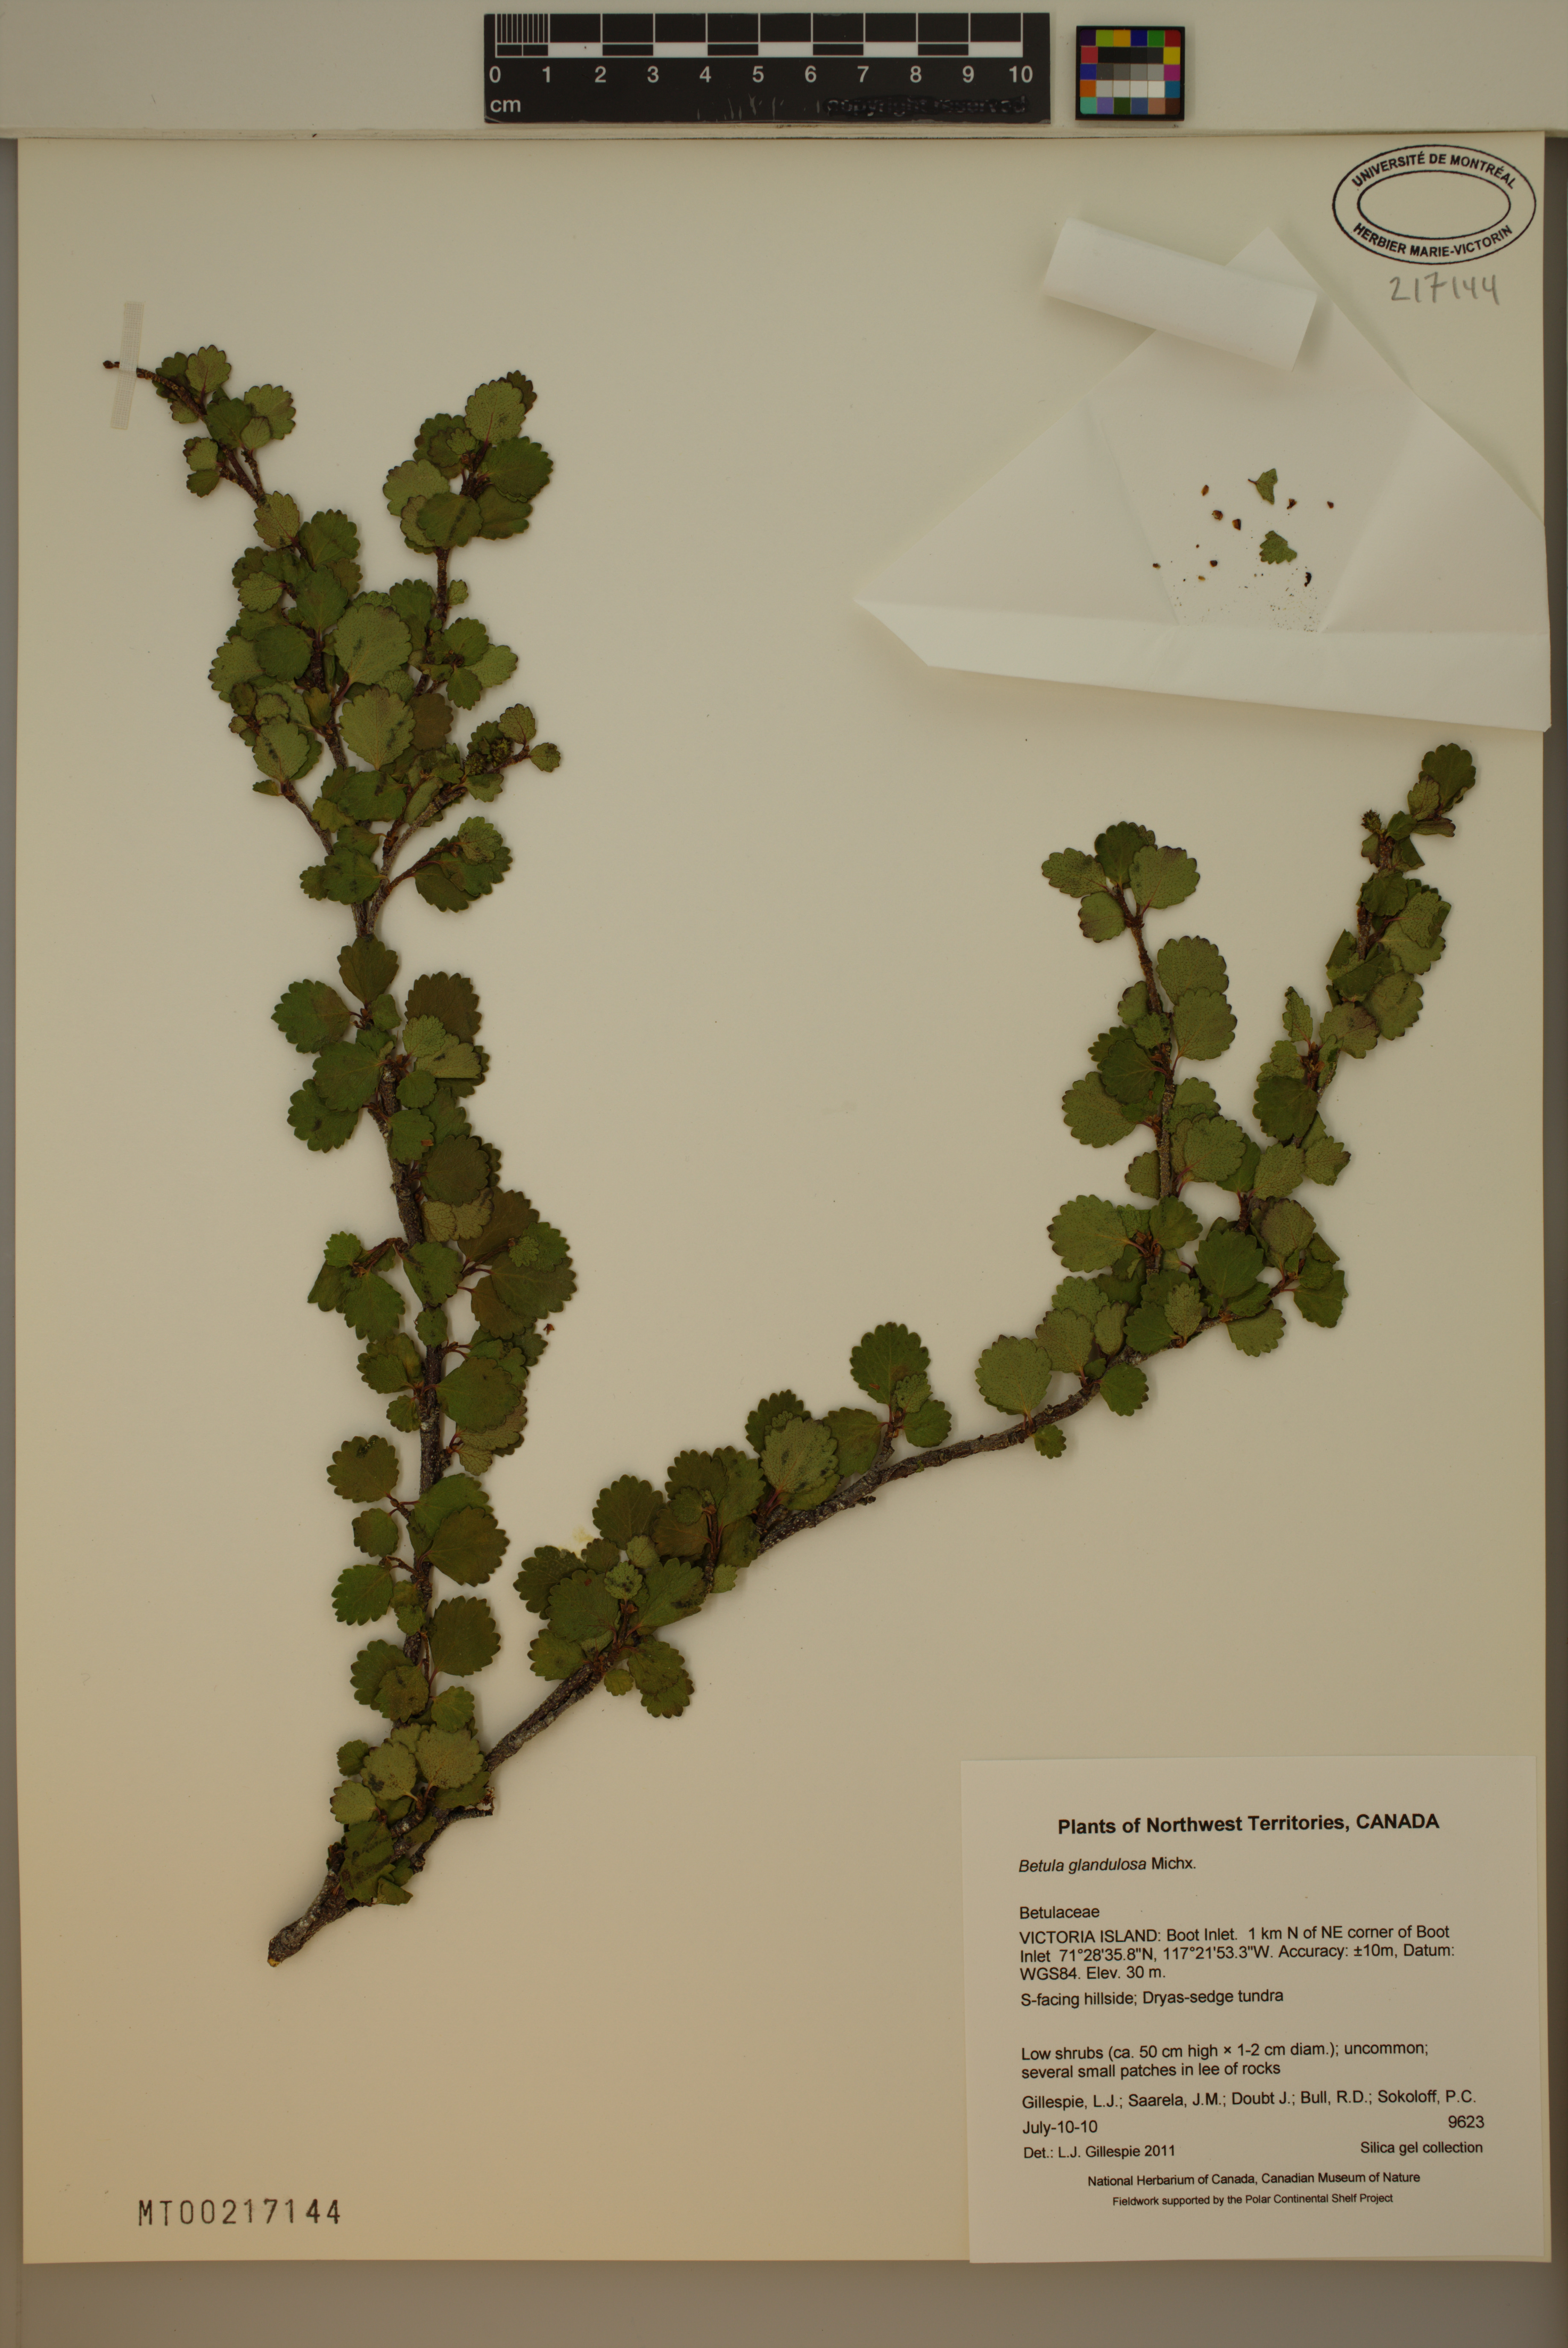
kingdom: Plantae
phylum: Tracheophyta
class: Magnoliopsida
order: Fagales
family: Betulaceae
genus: Betula
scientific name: Betula glandulosa
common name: Dwarf birch
